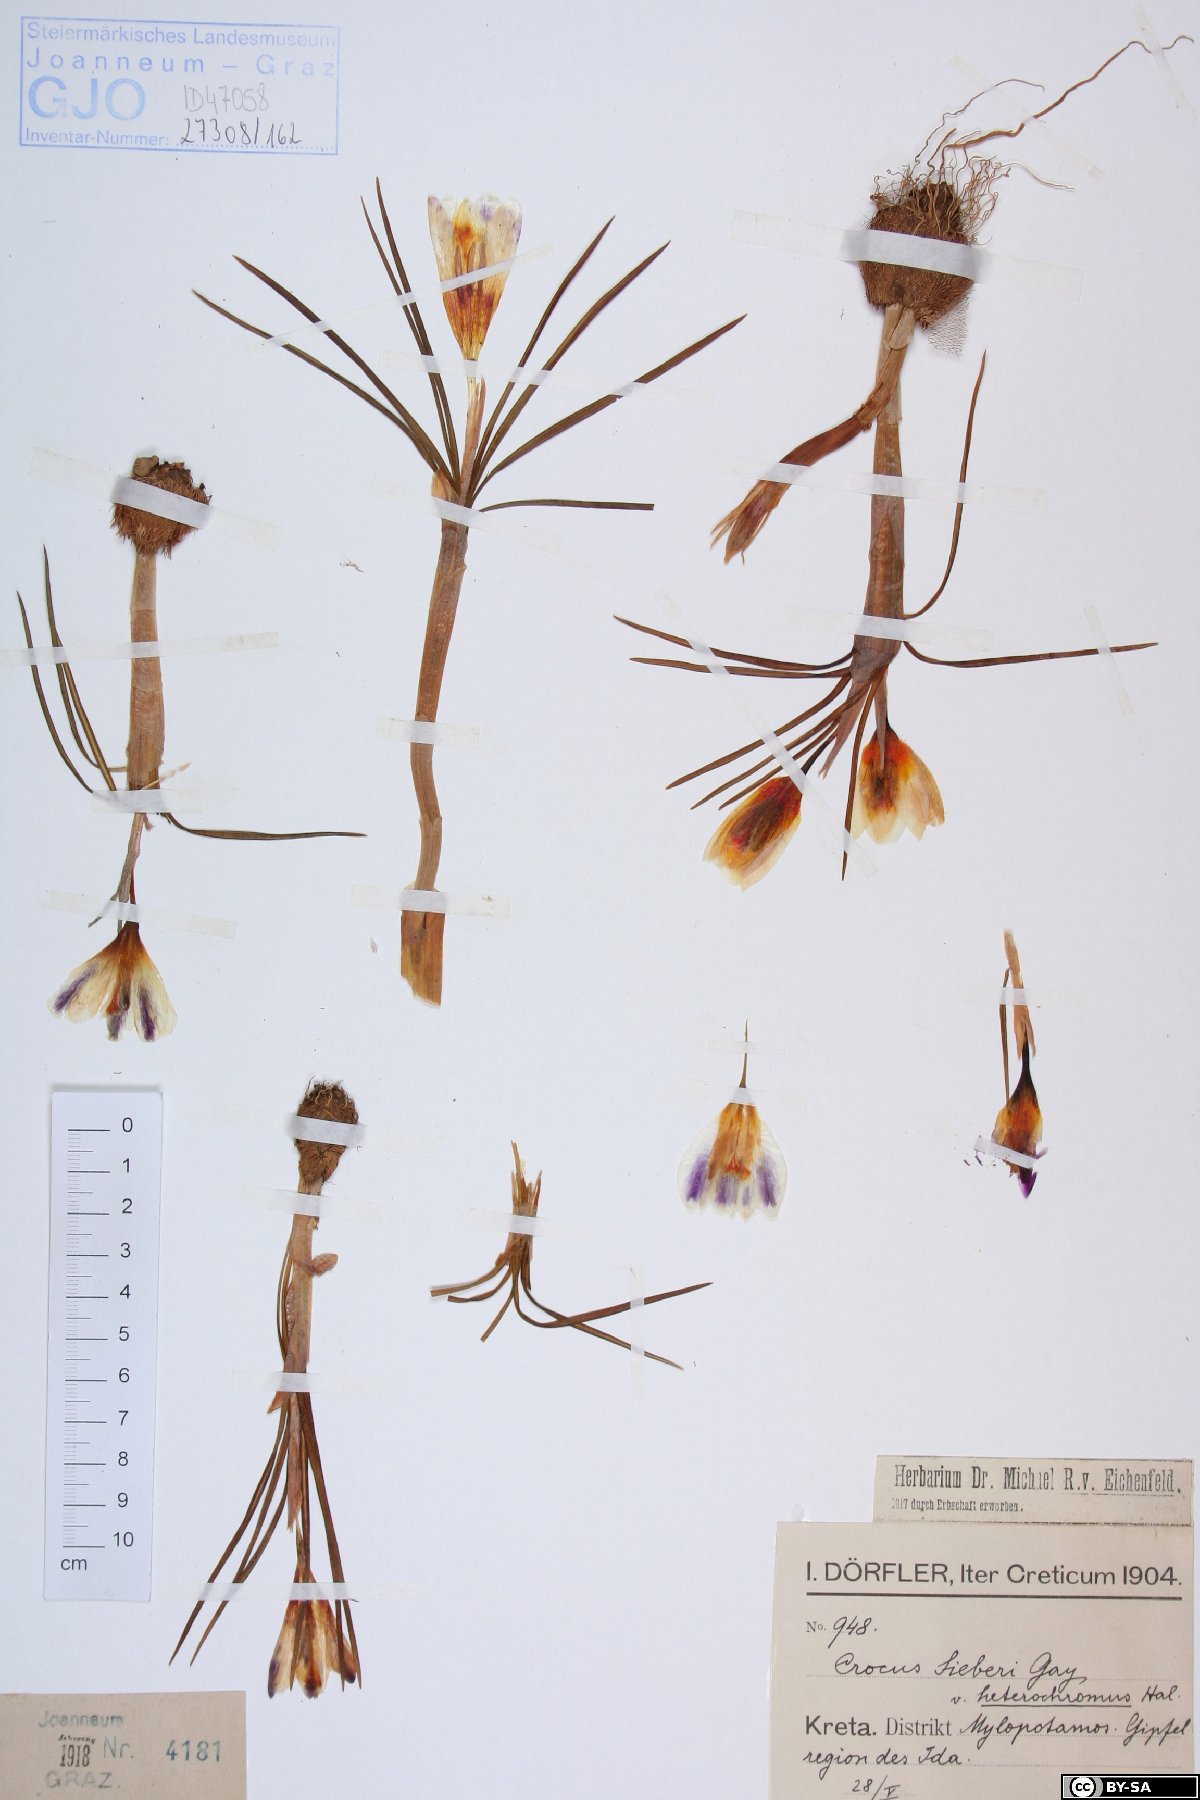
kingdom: Plantae
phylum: Tracheophyta
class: Liliopsida
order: Asparagales
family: Iridaceae
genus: Crocus
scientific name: Crocus sieberi
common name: Sieber's crocus
